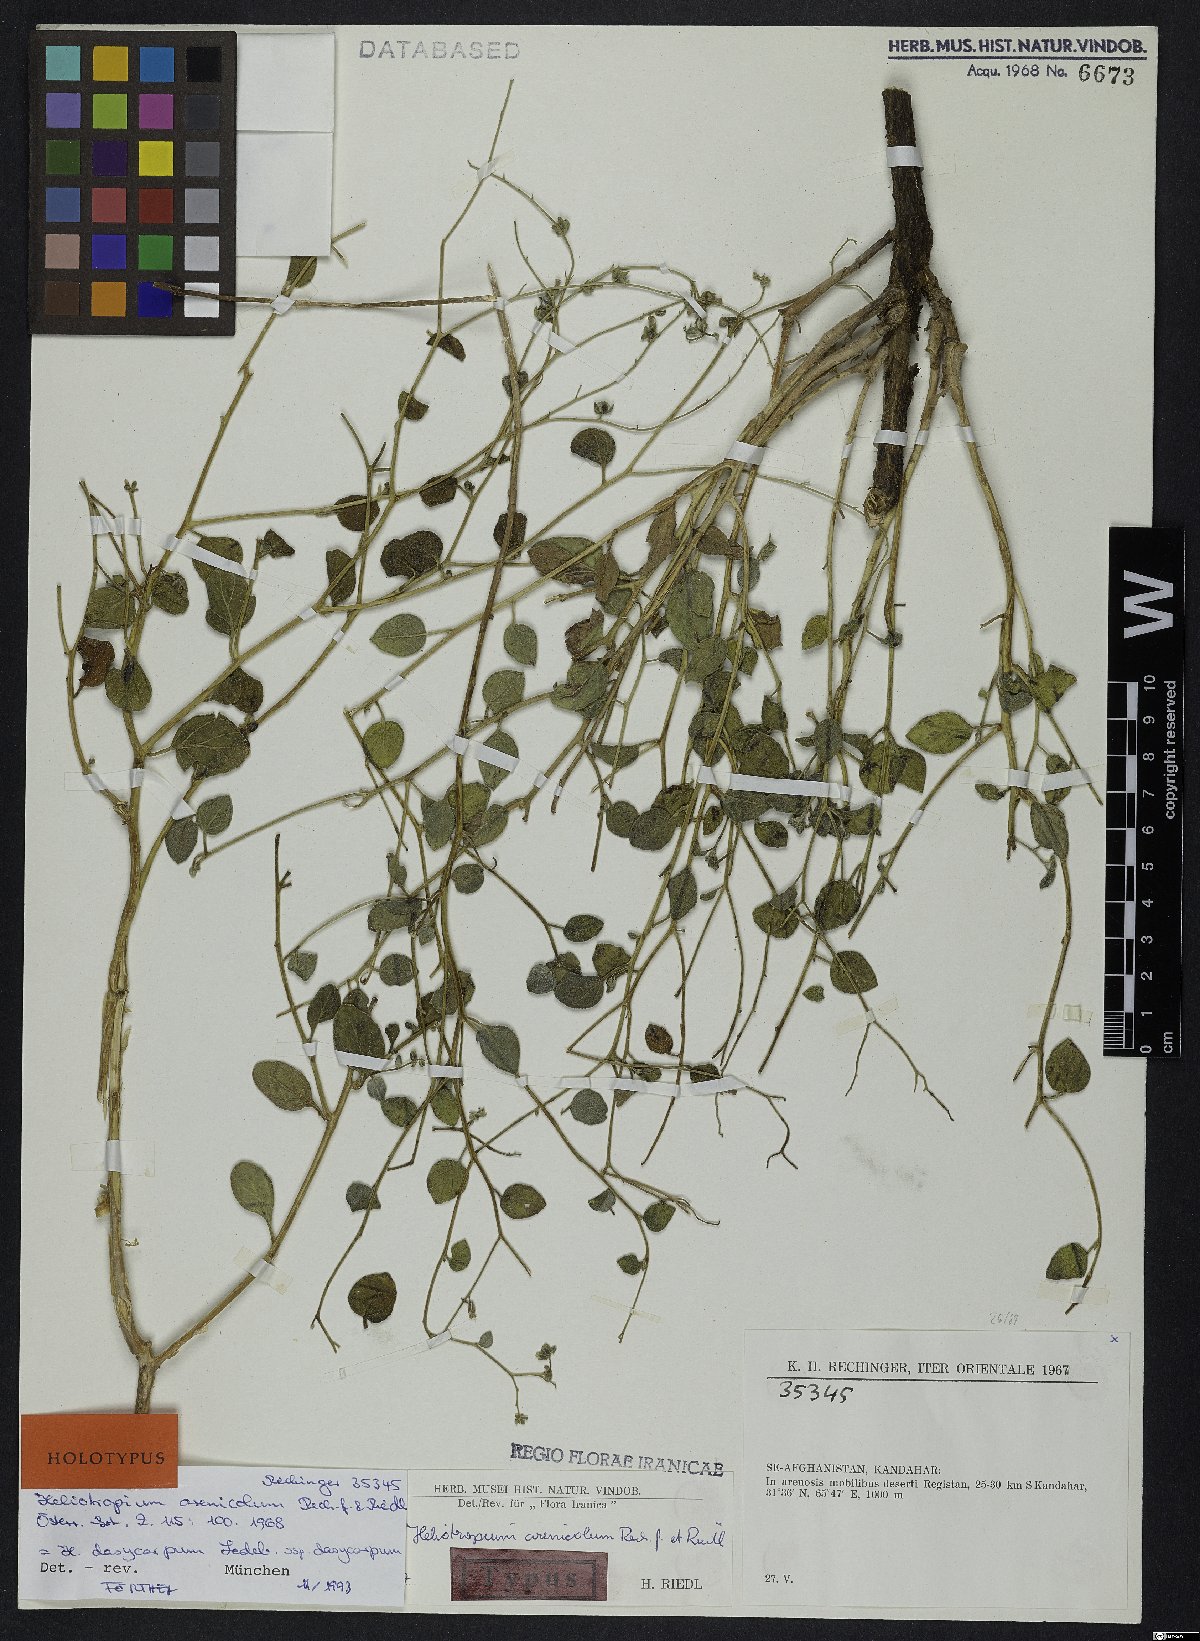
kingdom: Plantae
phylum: Tracheophyta
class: Magnoliopsida
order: Boraginales
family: Heliotropiaceae
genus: Heliotropium
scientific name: Heliotropium dasycarpum
